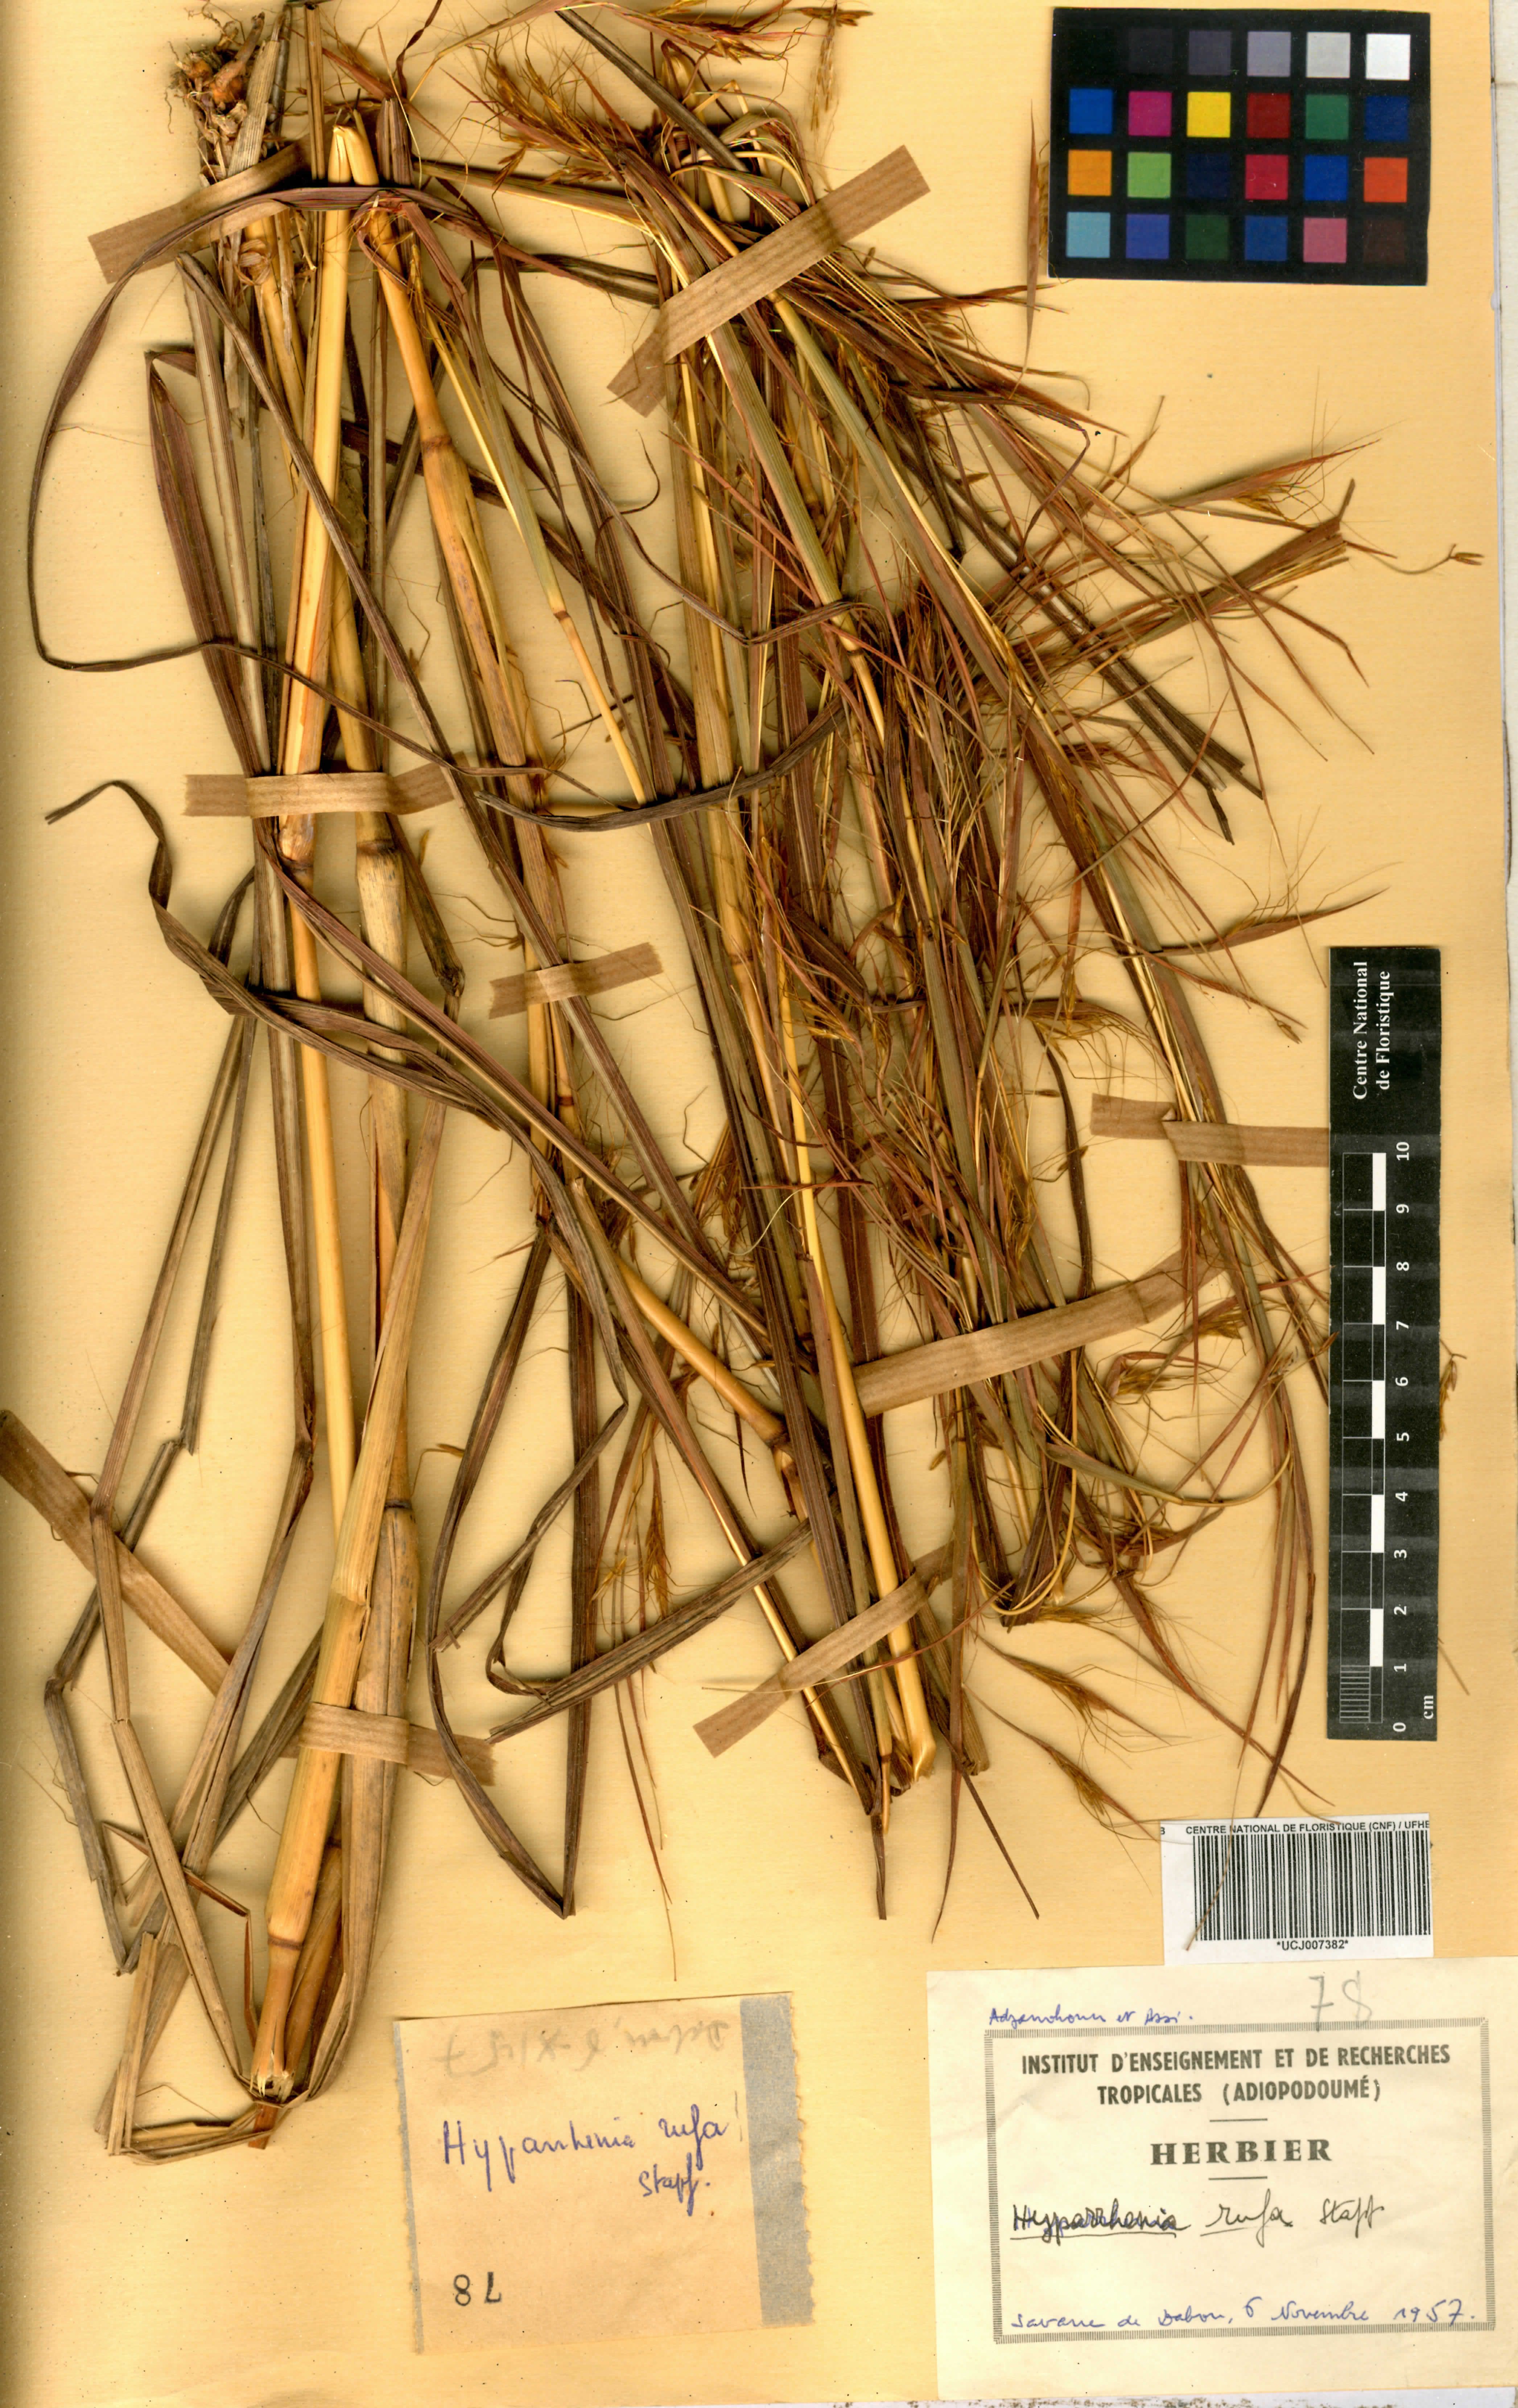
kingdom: Plantae
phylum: Tracheophyta
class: Liliopsida
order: Poales
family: Poaceae
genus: Hyparrhenia
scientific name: Hyparrhenia rufa
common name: Jaraguagrass
